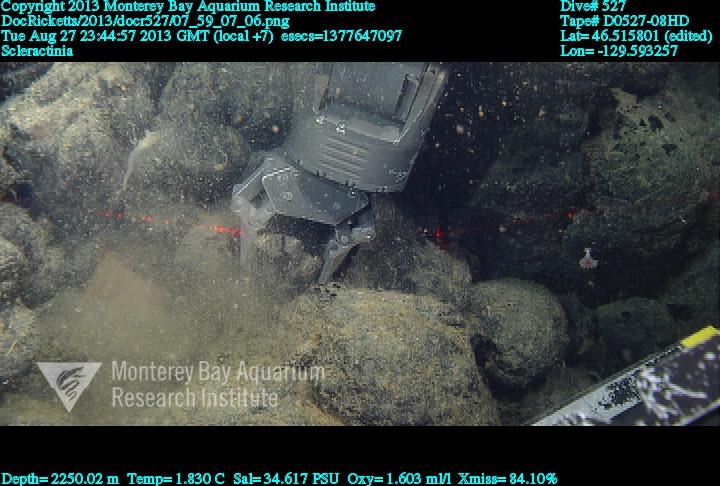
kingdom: Animalia
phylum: Cnidaria
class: Anthozoa
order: Scleractinia
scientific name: Scleractinia
